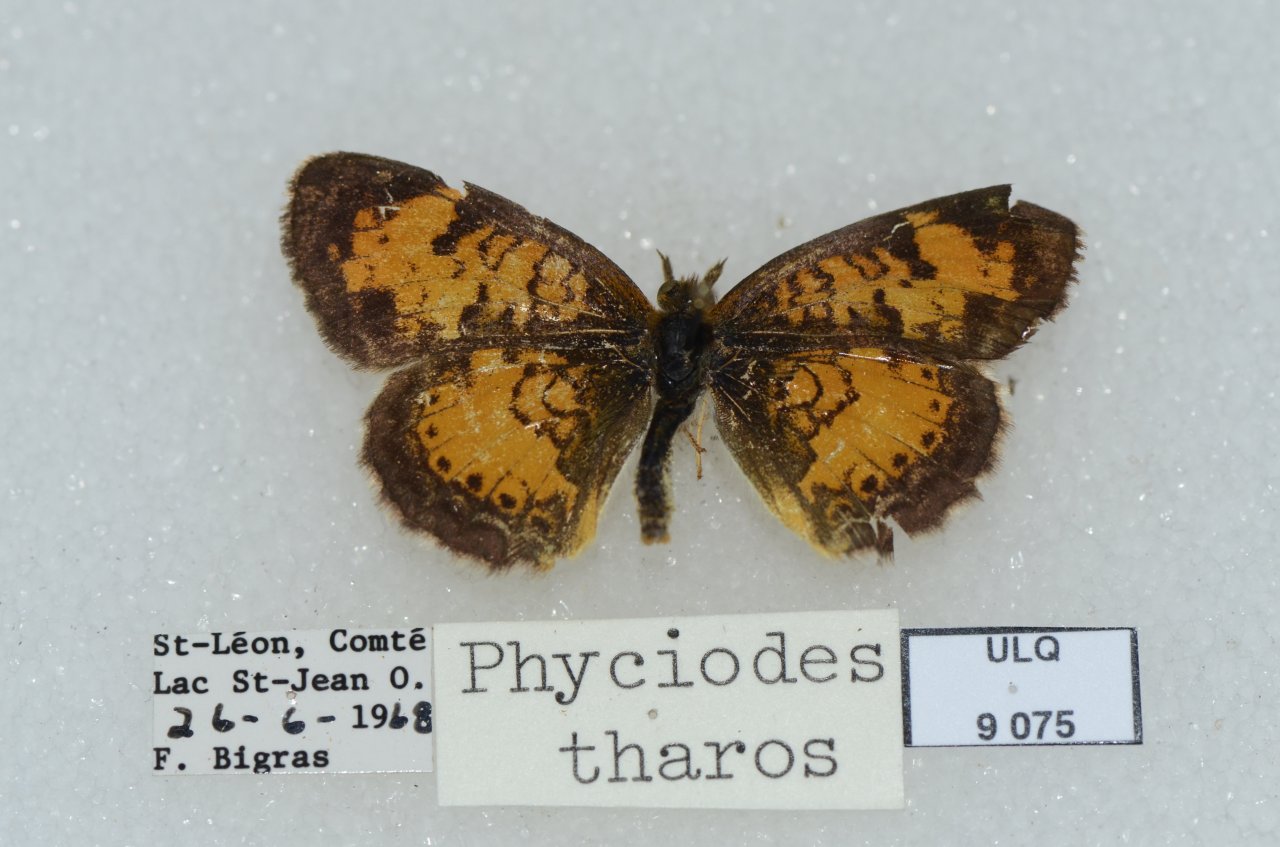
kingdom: Animalia
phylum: Arthropoda
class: Insecta
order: Lepidoptera
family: Nymphalidae
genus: Phyciodes
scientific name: Phyciodes tharos
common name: Northern Crescent
